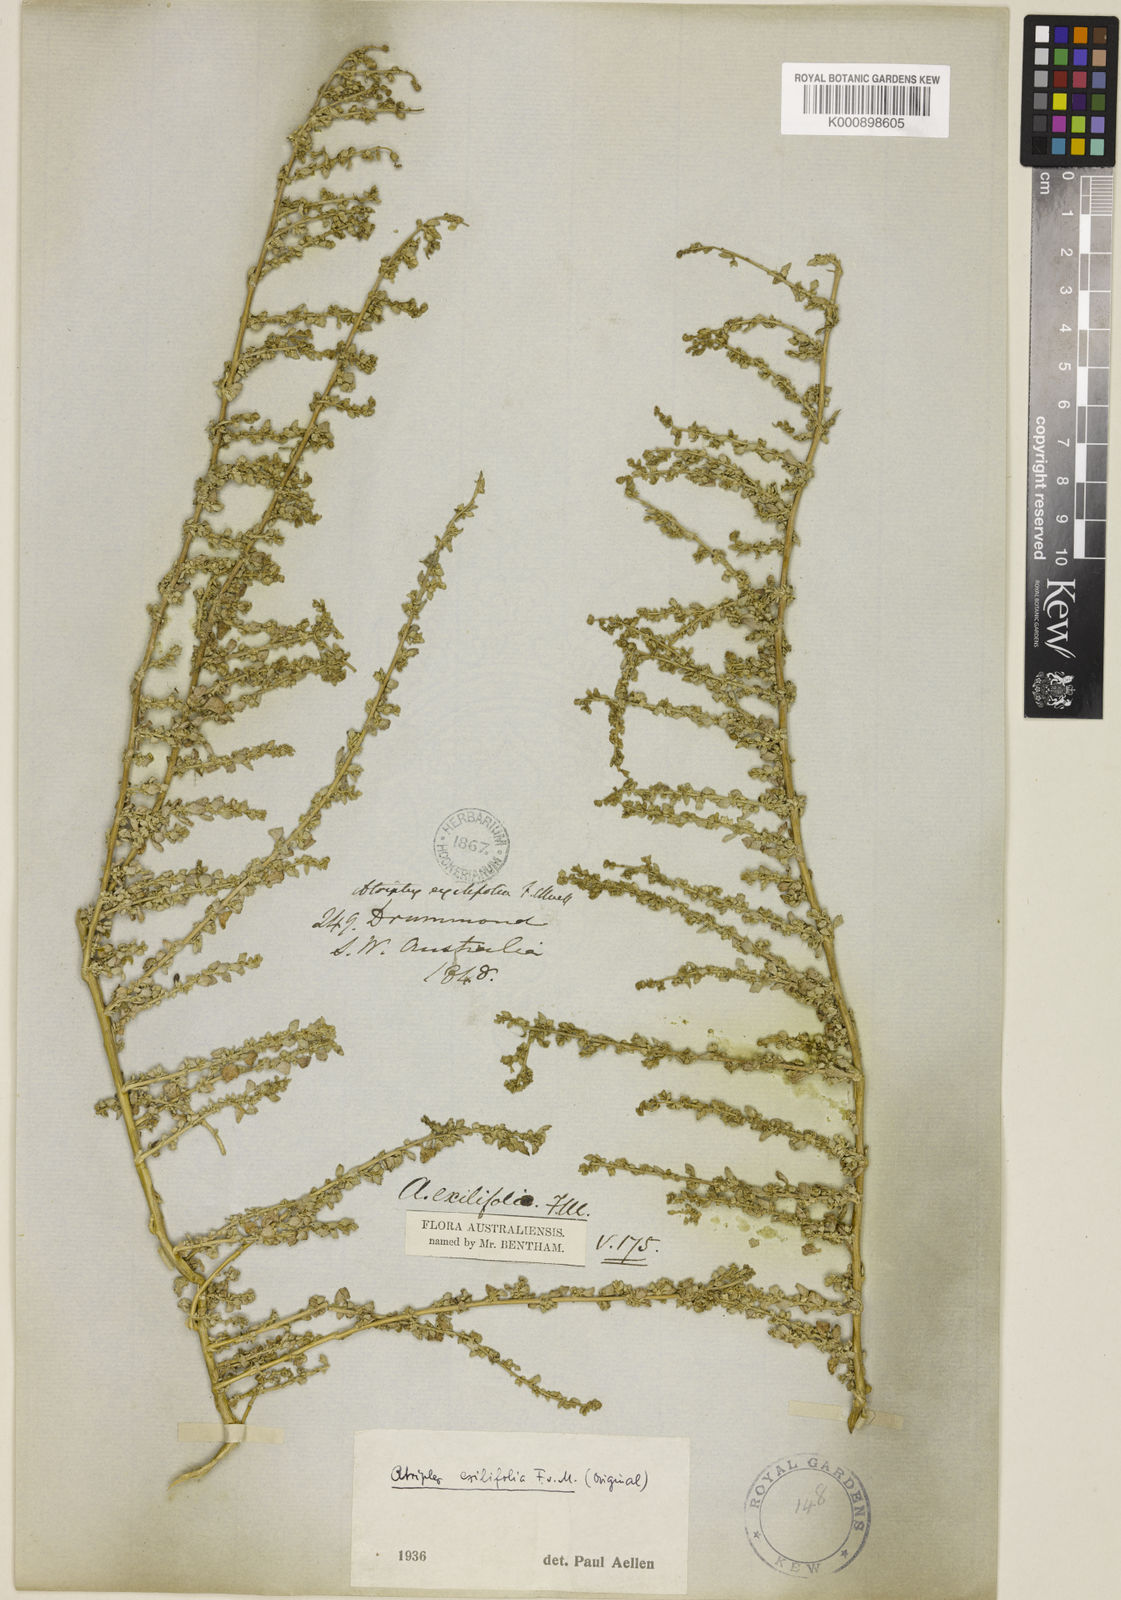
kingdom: Plantae
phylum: Tracheophyta
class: Magnoliopsida
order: Caryophyllales
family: Amaranthaceae
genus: Atriplex
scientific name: Atriplex exilifolia
